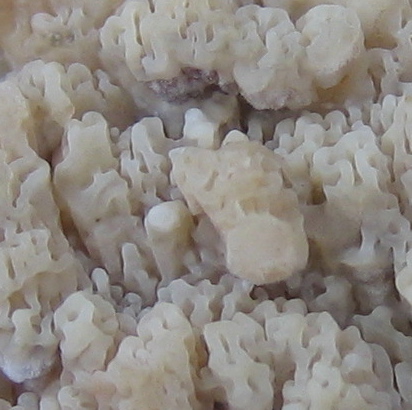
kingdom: Fungi
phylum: Basidiomycota
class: Agaricomycetes
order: Polyporales
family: Meruliaceae
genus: Phlebia
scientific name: Phlebia rufa
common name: ege-åresvamp
